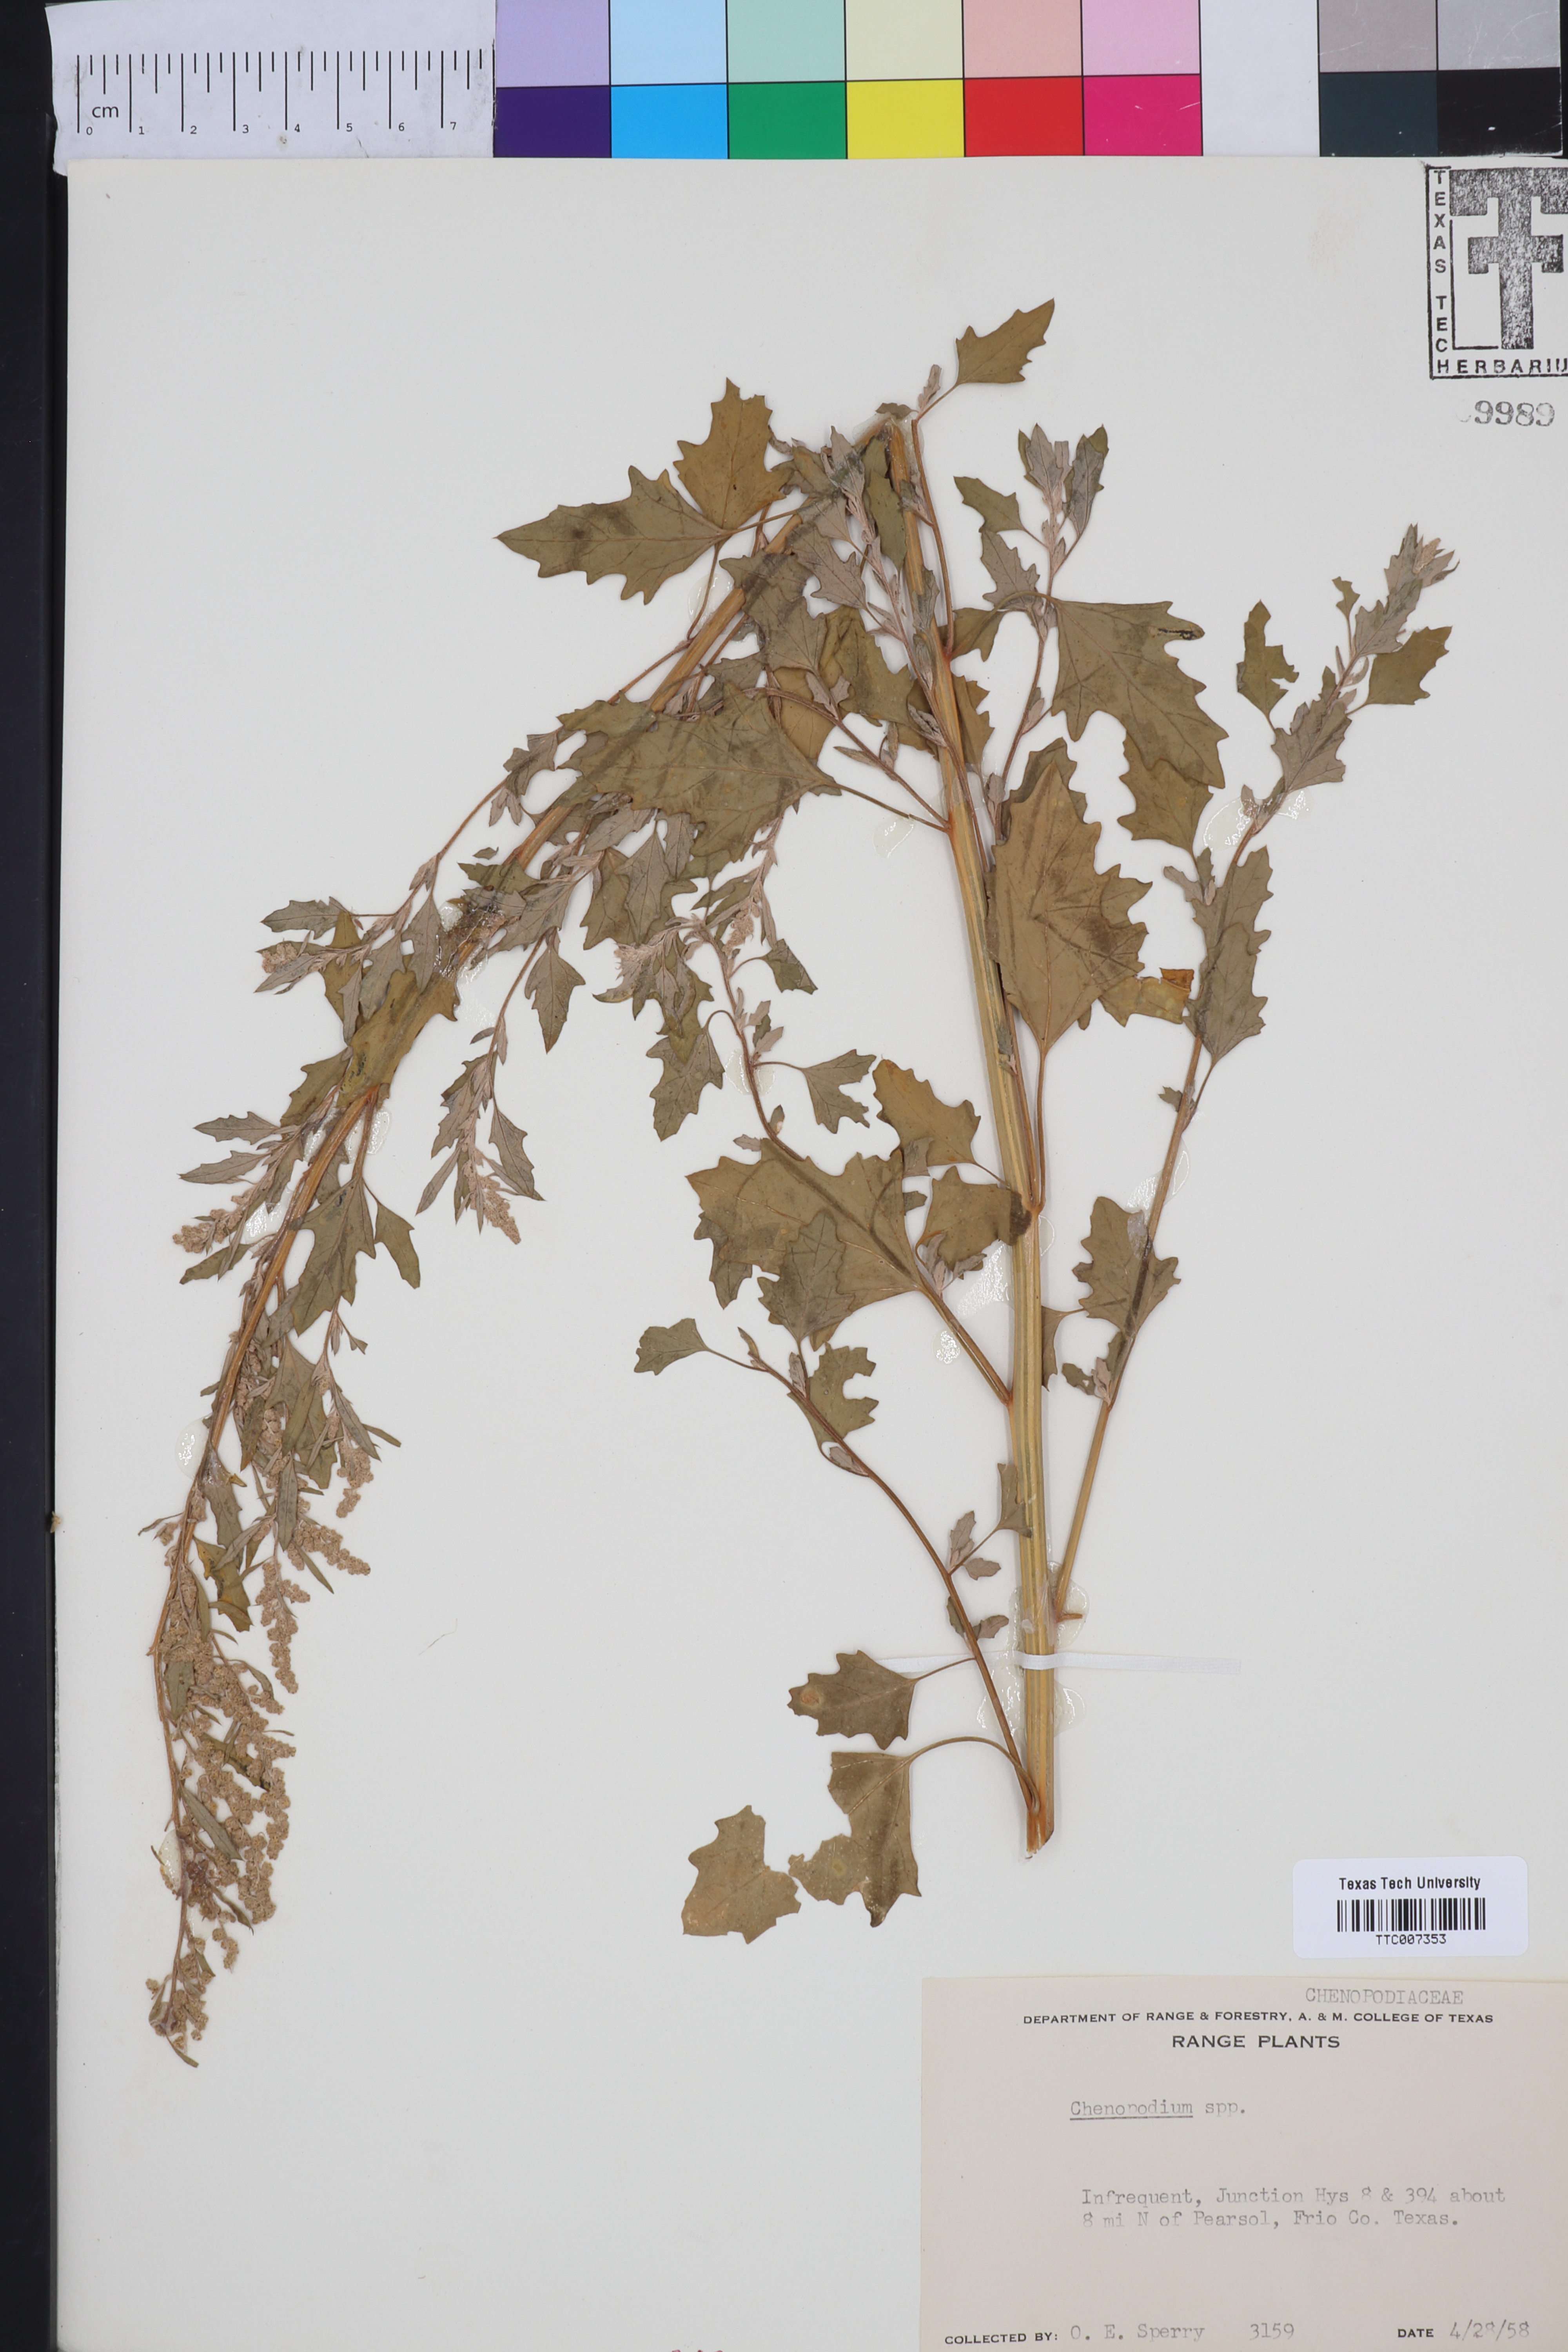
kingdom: Plantae
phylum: Tracheophyta
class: Magnoliopsida
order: Caryophyllales
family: Amaranthaceae
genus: Chenopodium
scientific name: Chenopodium
